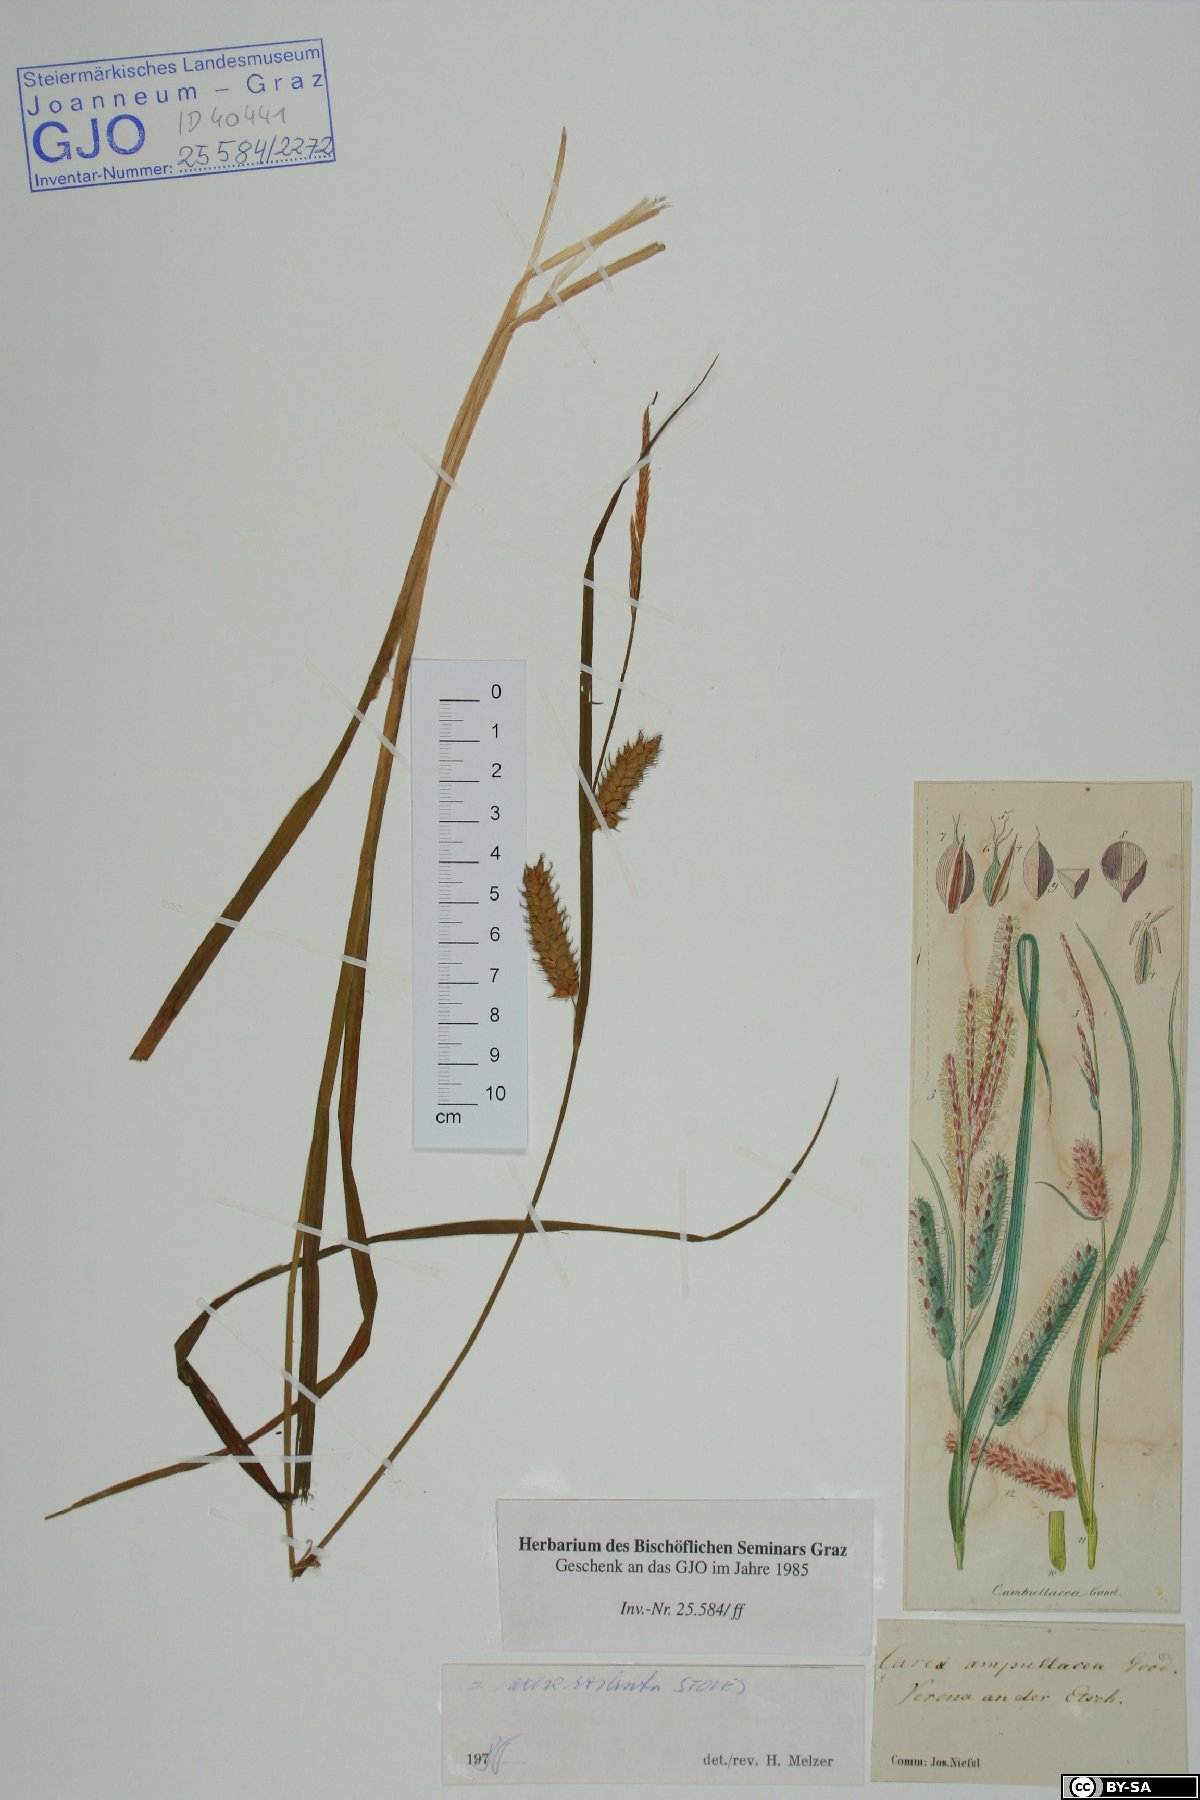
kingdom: Plantae
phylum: Tracheophyta
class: Liliopsida
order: Poales
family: Cyperaceae
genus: Carex
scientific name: Carex rostrata
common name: Bottle sedge
